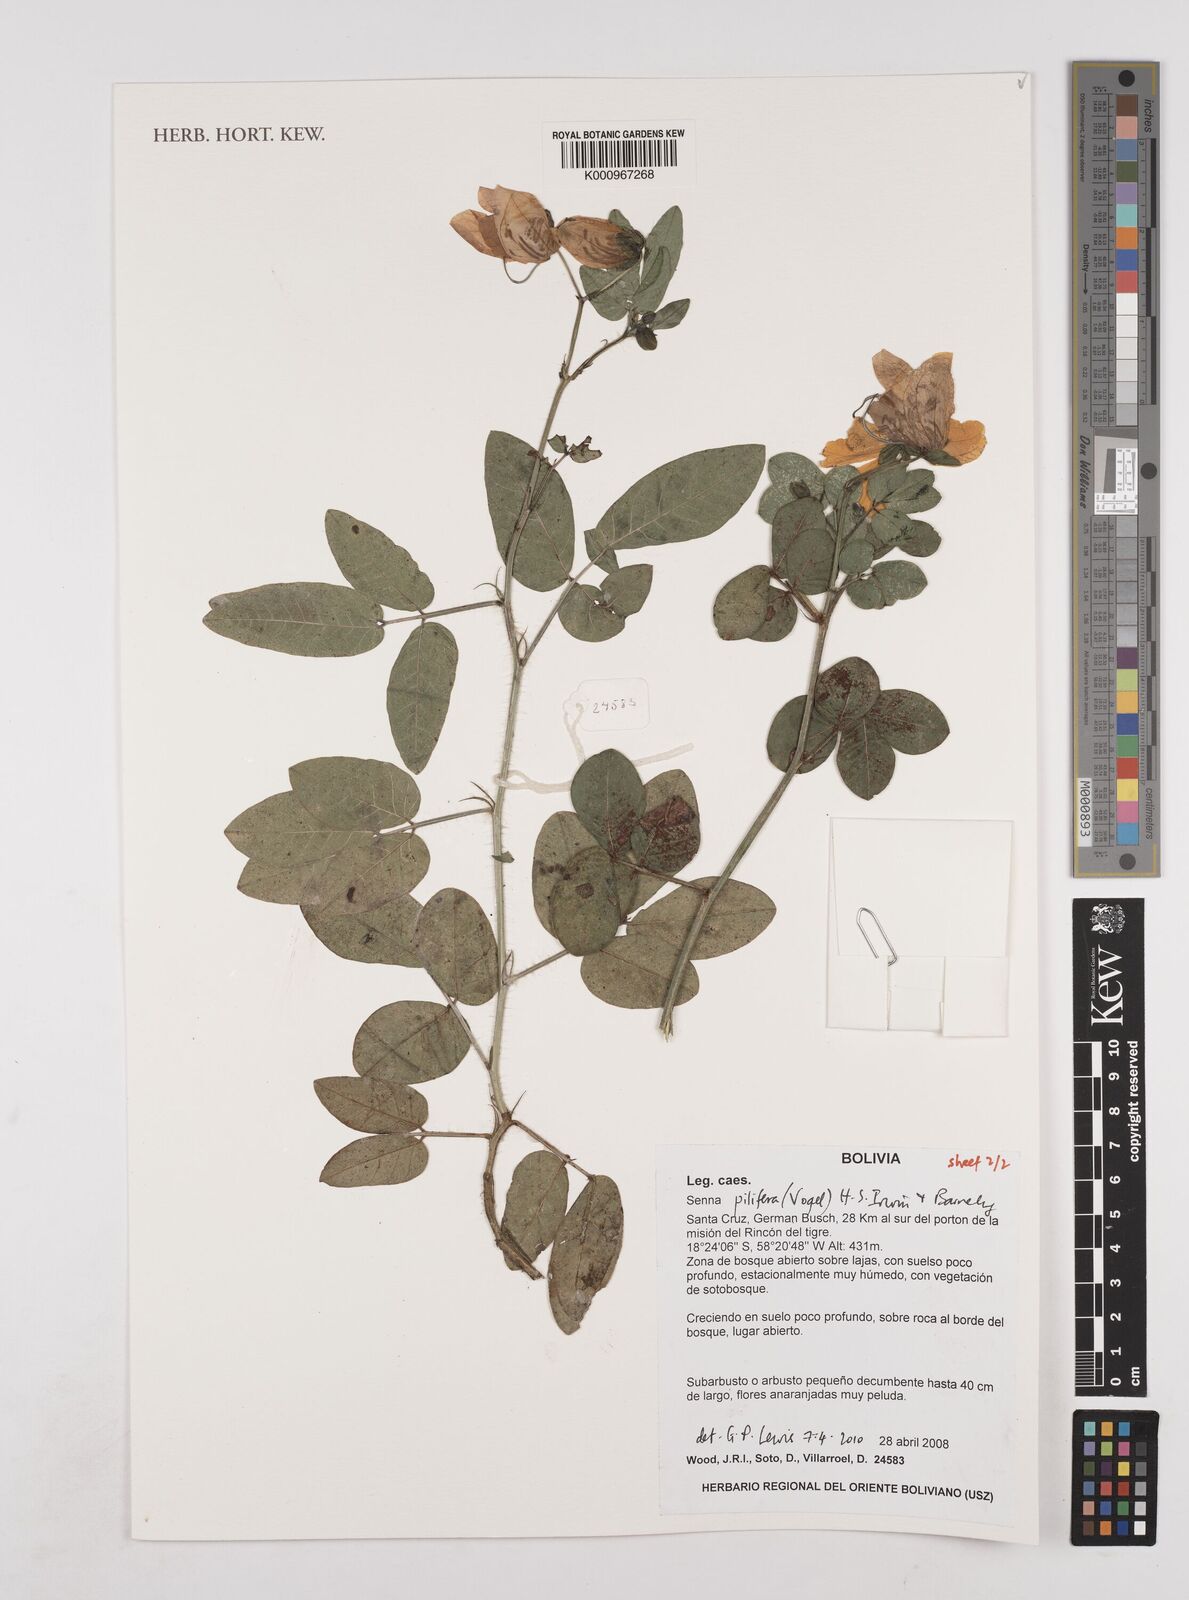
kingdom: Plantae
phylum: Tracheophyta
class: Magnoliopsida
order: Fabales
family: Fabaceae
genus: Senna
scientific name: Senna pilifera
